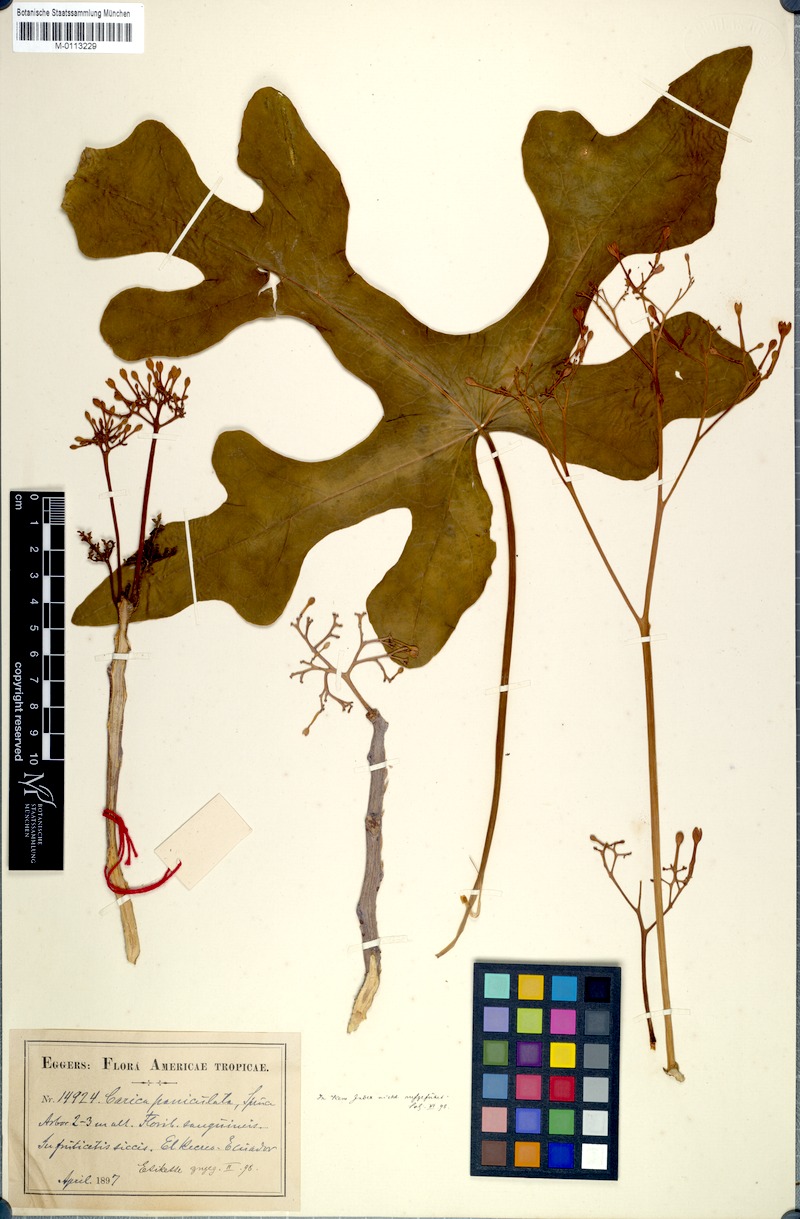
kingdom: Plantae
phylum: Tracheophyta
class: Magnoliopsida
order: Brassicales
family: Caricaceae
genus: Vasconcellea
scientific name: Vasconcellea parviflora
